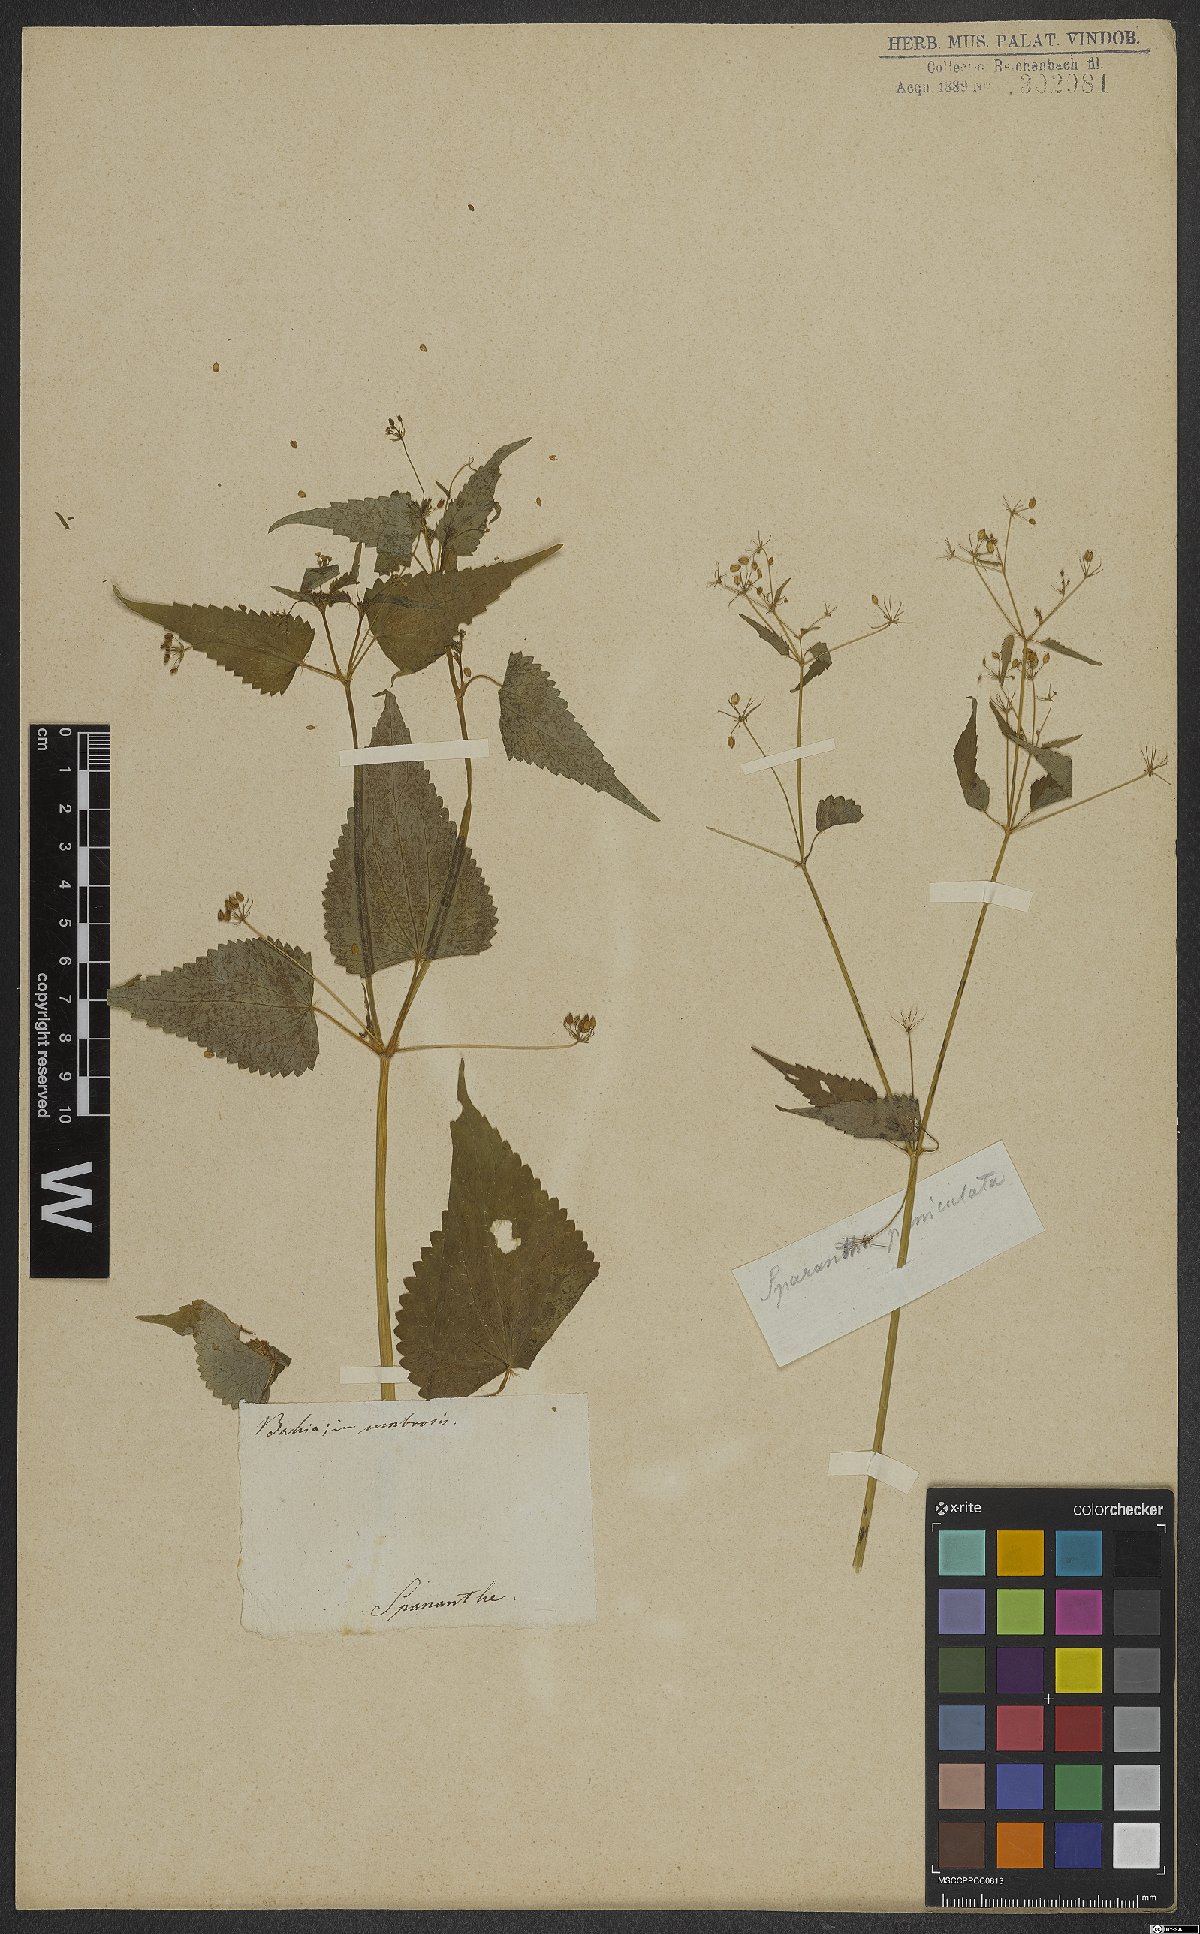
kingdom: Plantae
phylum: Tracheophyta
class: Magnoliopsida
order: Apiales
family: Apiaceae
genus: Spananthe
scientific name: Spananthe paniculata
